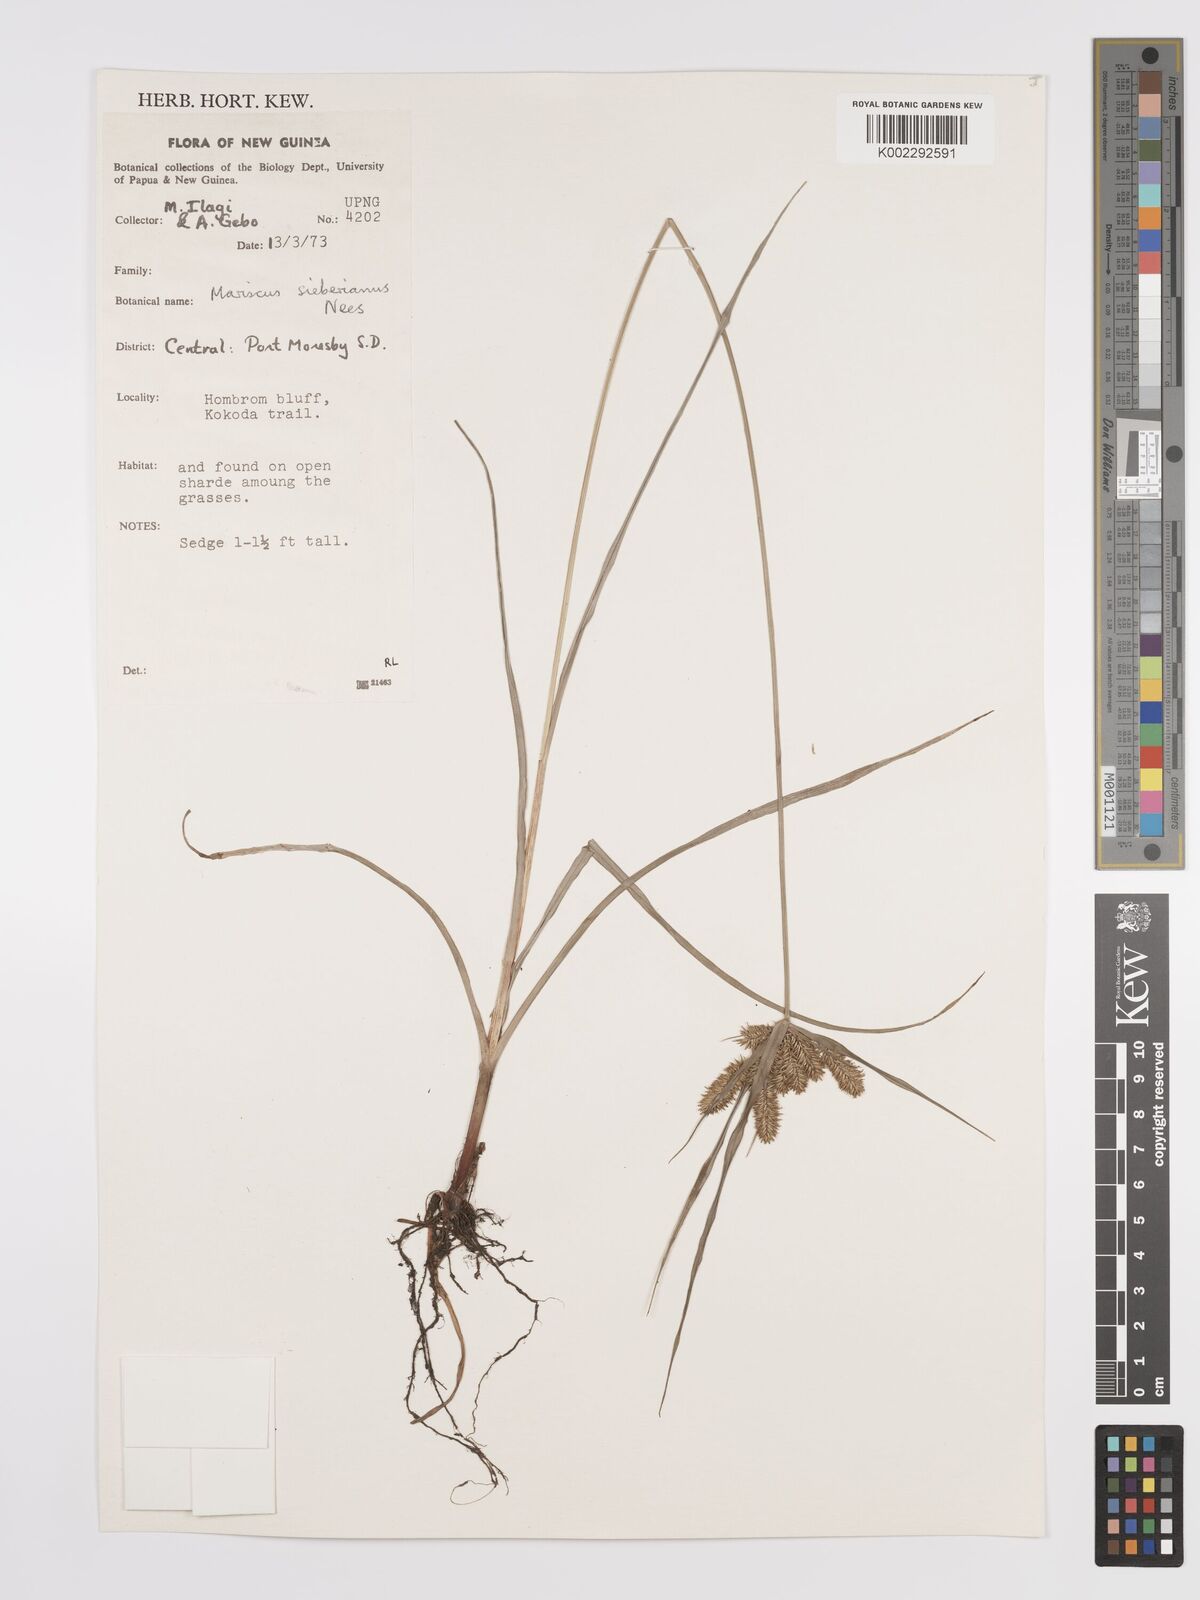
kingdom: Plantae
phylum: Tracheophyta
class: Liliopsida
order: Poales
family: Cyperaceae
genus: Cyperus
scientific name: Cyperus cyperoides
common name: Pacific island flat sedge
